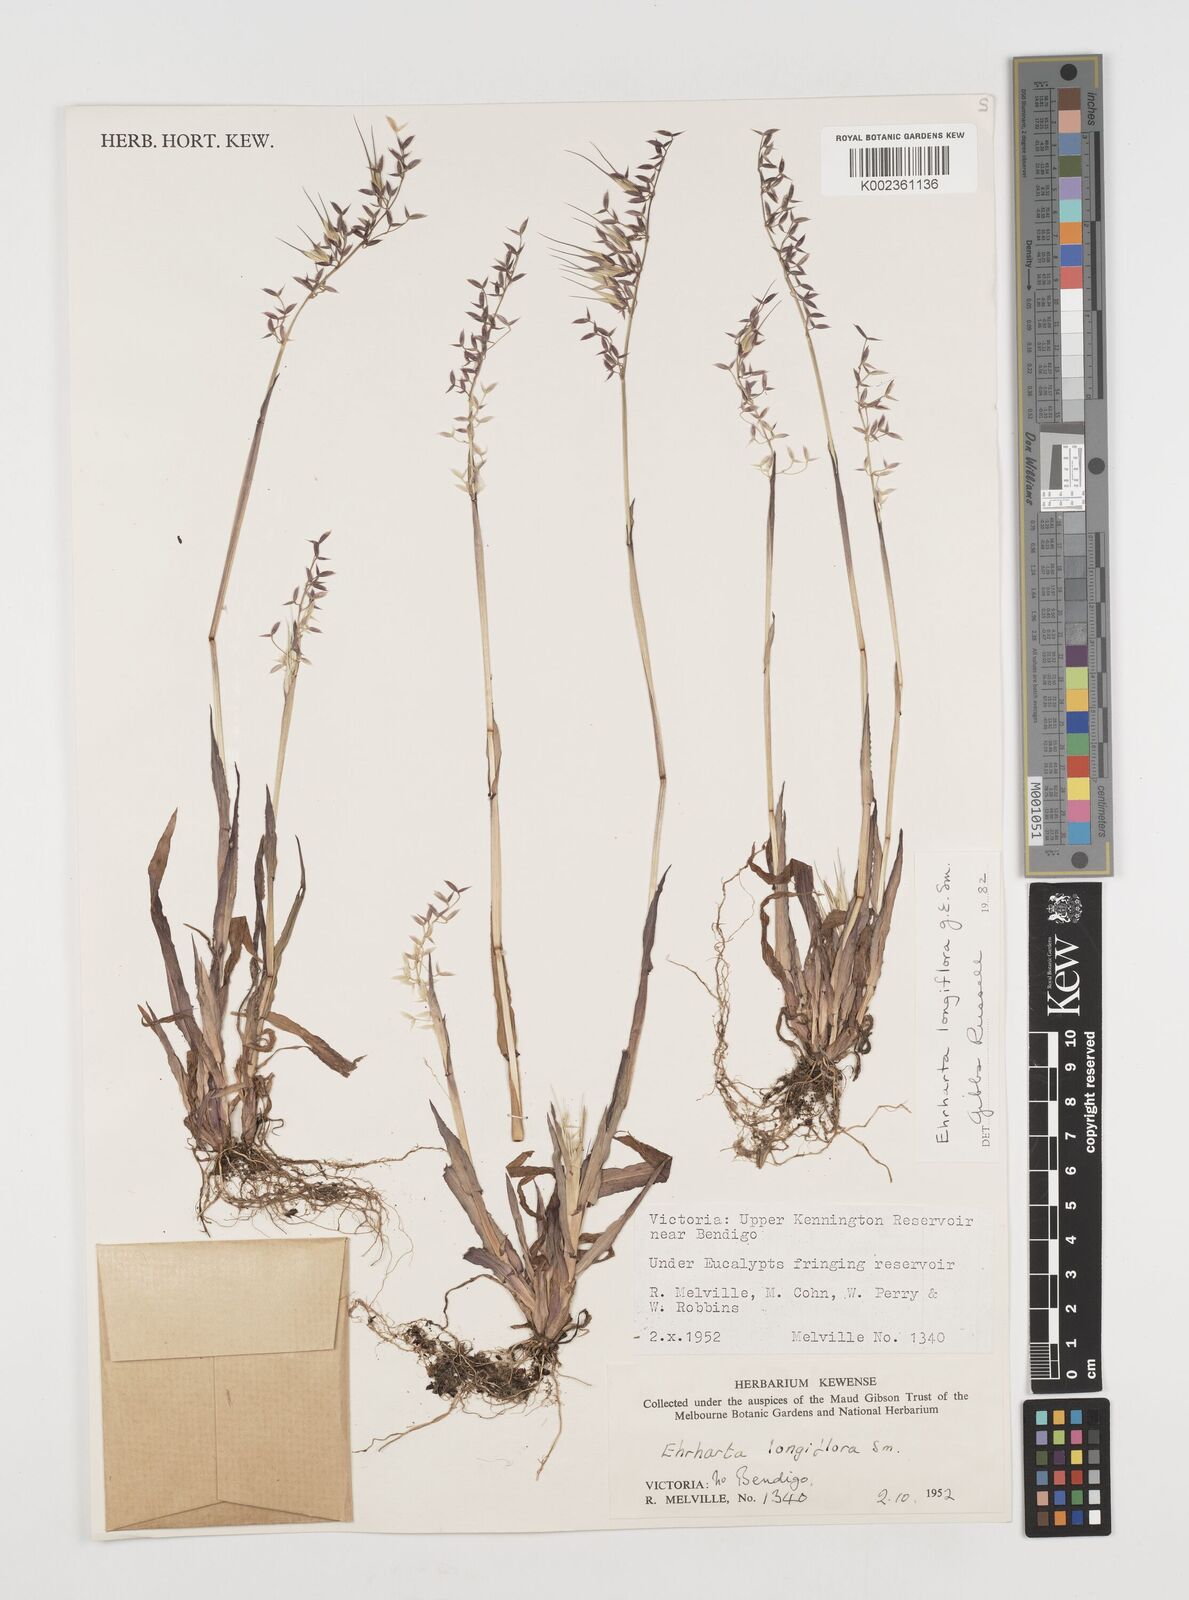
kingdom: Plantae
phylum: Tracheophyta
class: Liliopsida
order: Poales
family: Poaceae
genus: Ehrharta
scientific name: Ehrharta longiflora
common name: Longflowered veldtgrass
